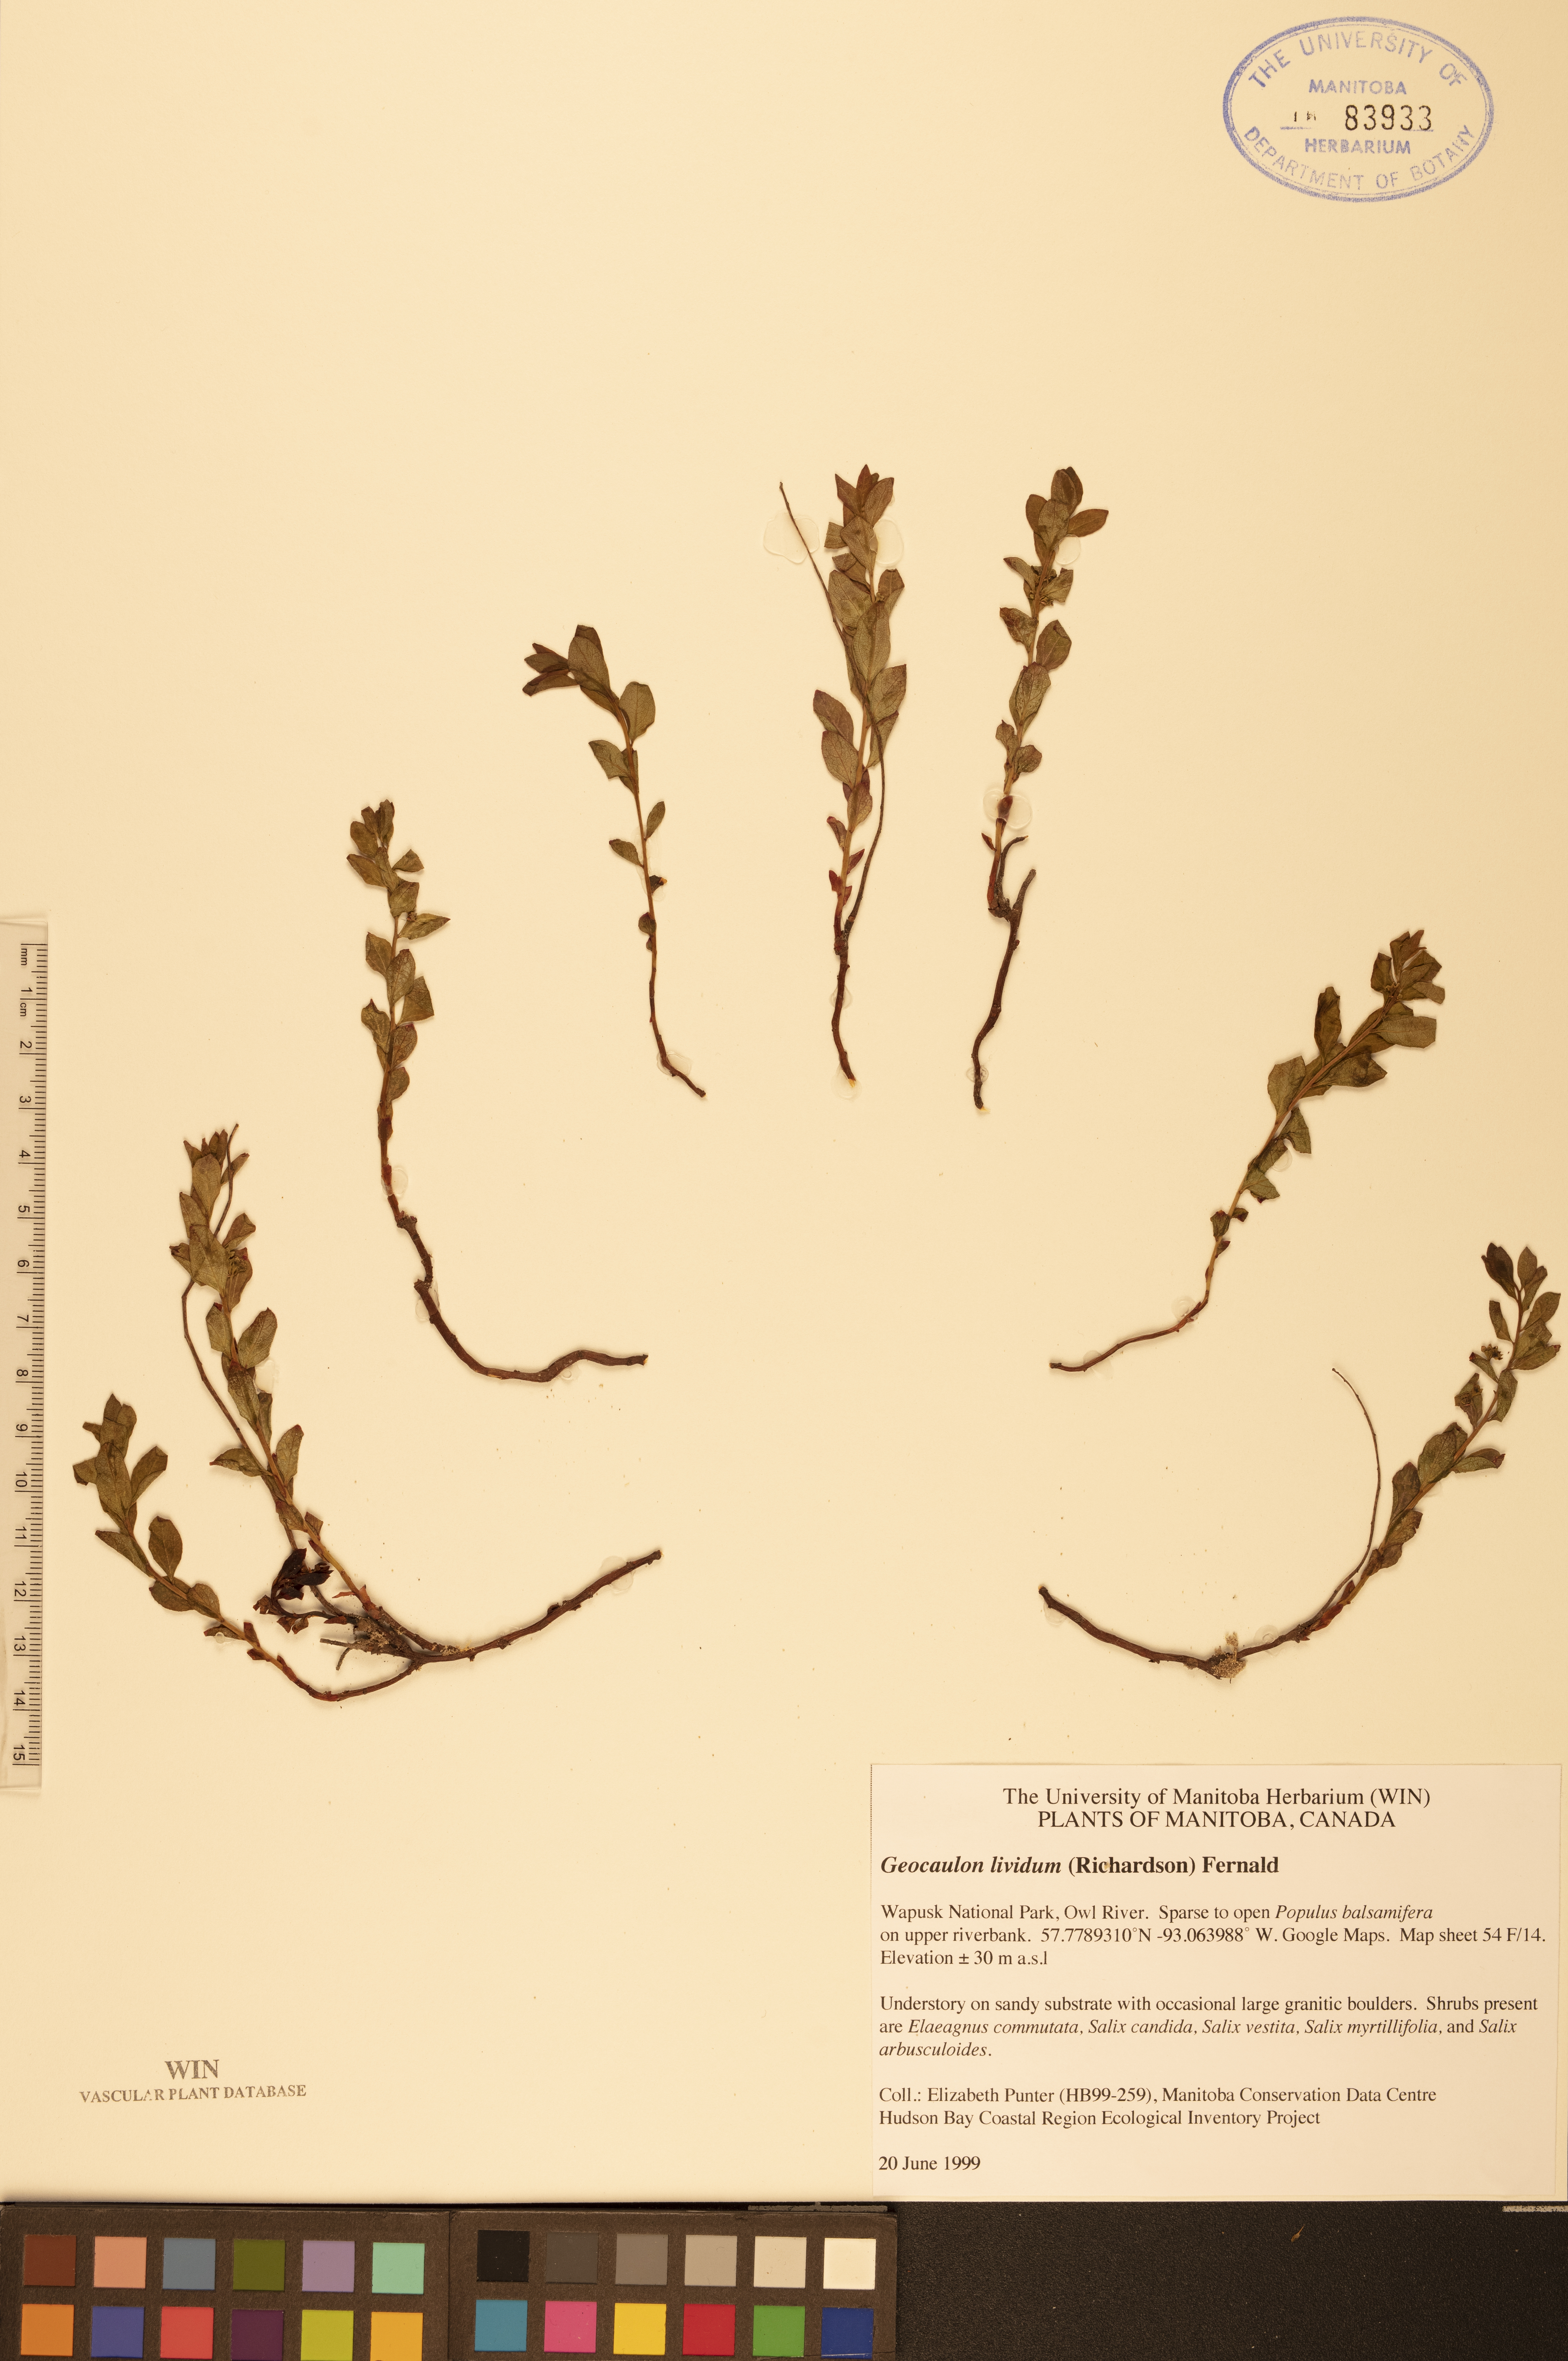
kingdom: Plantae
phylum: Tracheophyta
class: Magnoliopsida
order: Santalales
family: Comandraceae
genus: Geocaulon
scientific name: Geocaulon lividum
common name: Earthberry
